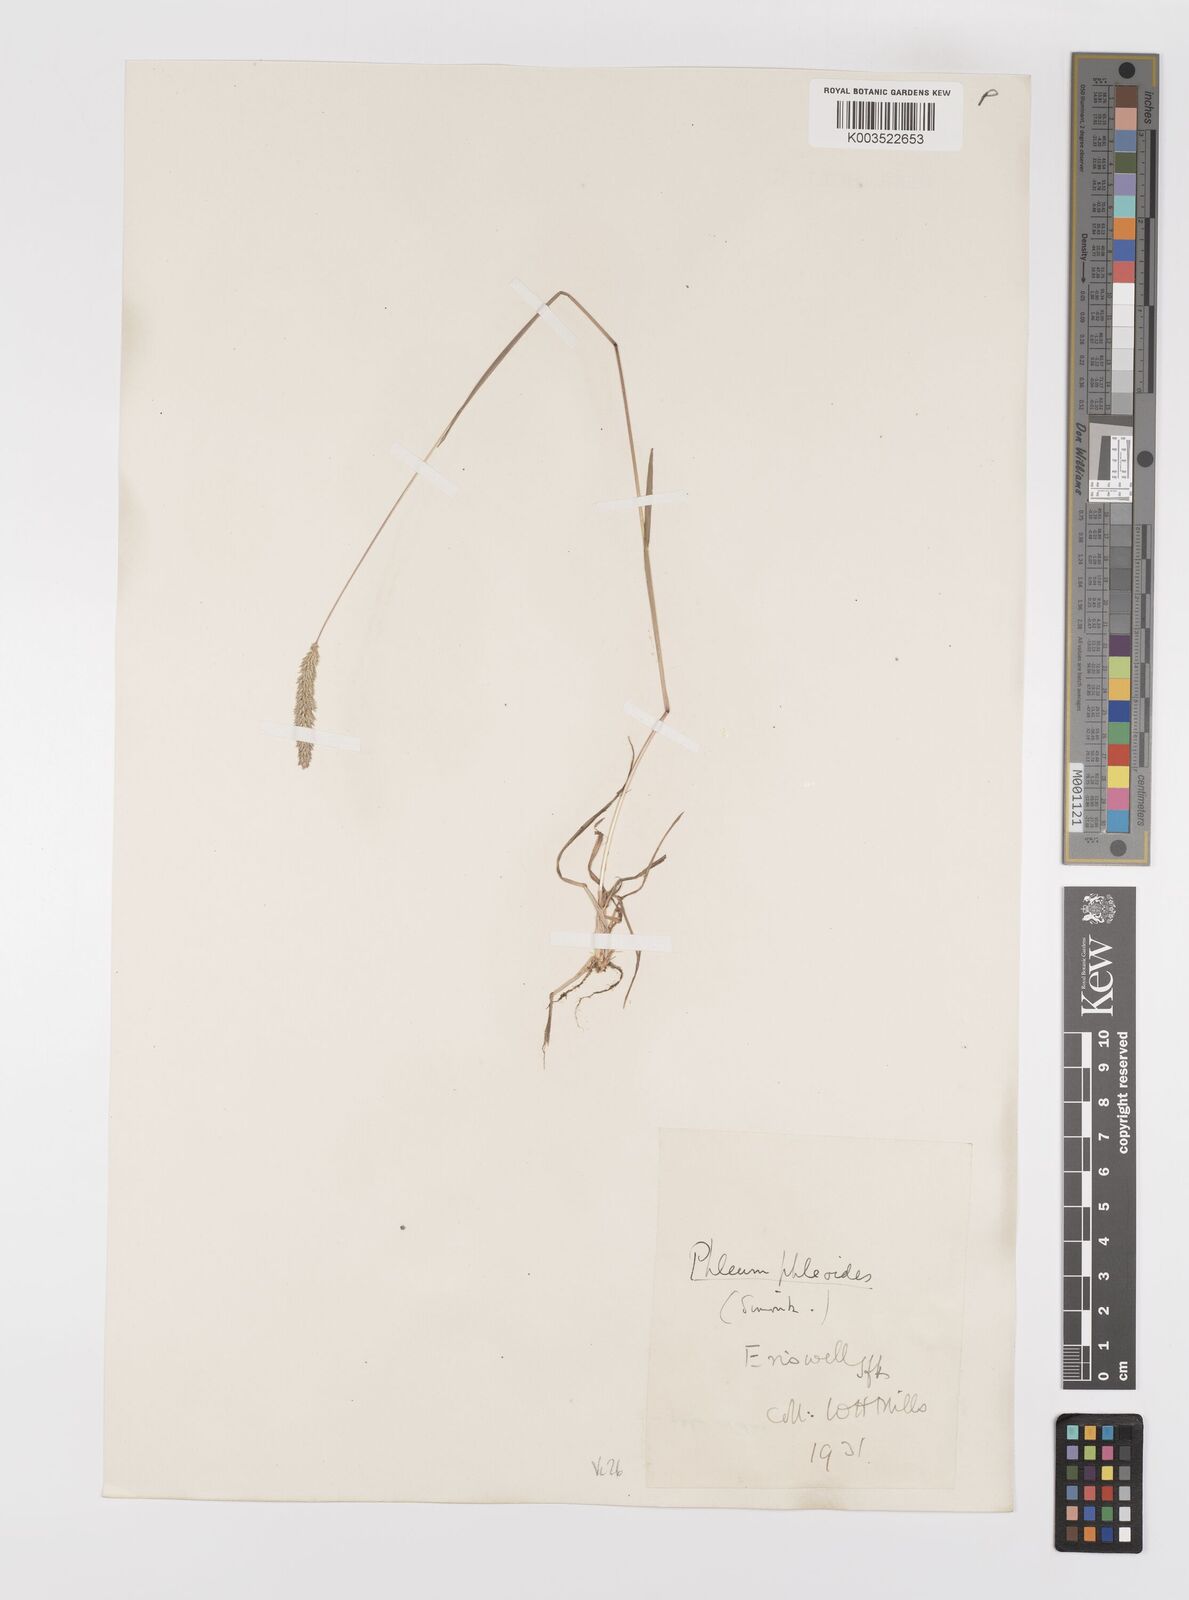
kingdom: Plantae
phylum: Tracheophyta
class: Liliopsida
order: Poales
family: Poaceae
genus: Phleum
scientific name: Phleum phleoides
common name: Purple-stem cat's-tail
